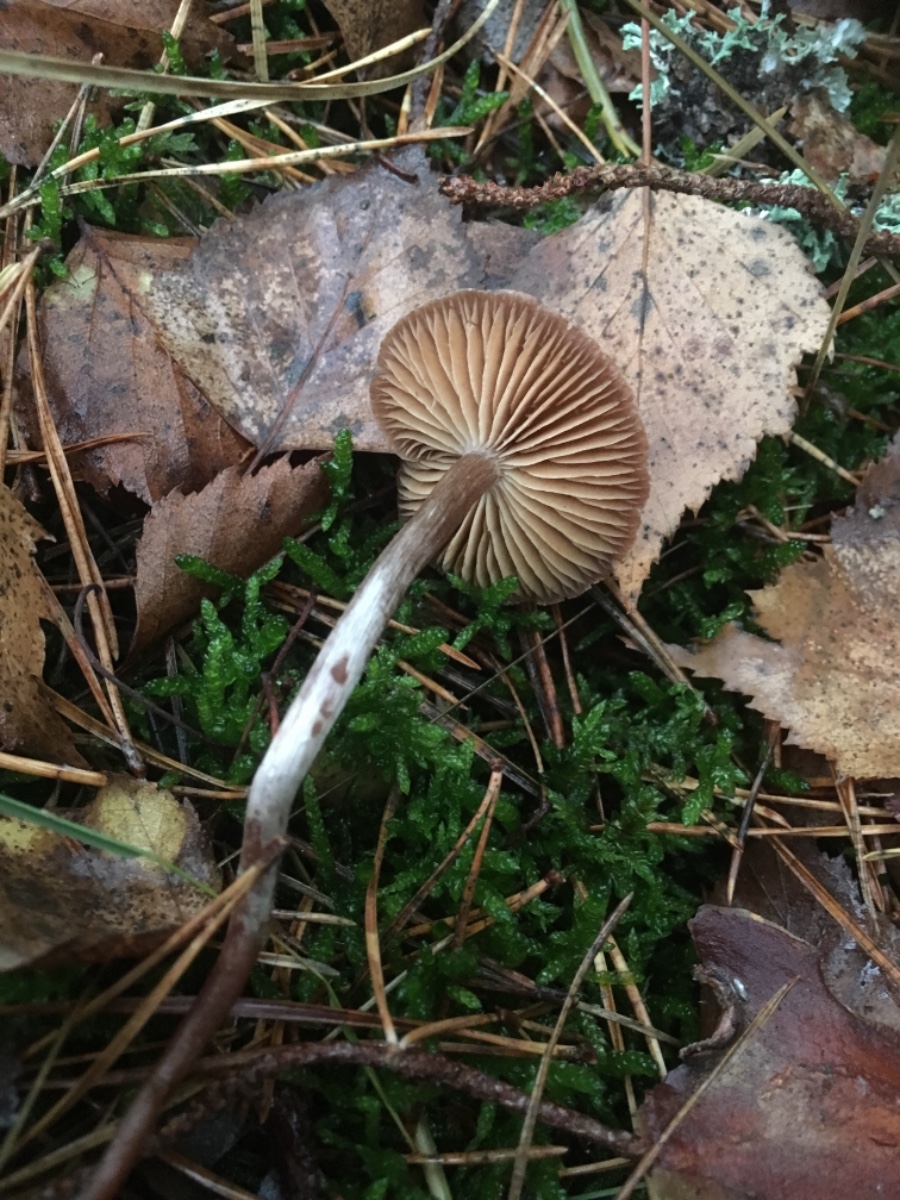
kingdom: Fungi
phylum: Basidiomycota
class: Agaricomycetes
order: Agaricales
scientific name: Agaricales
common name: champignonordenen
